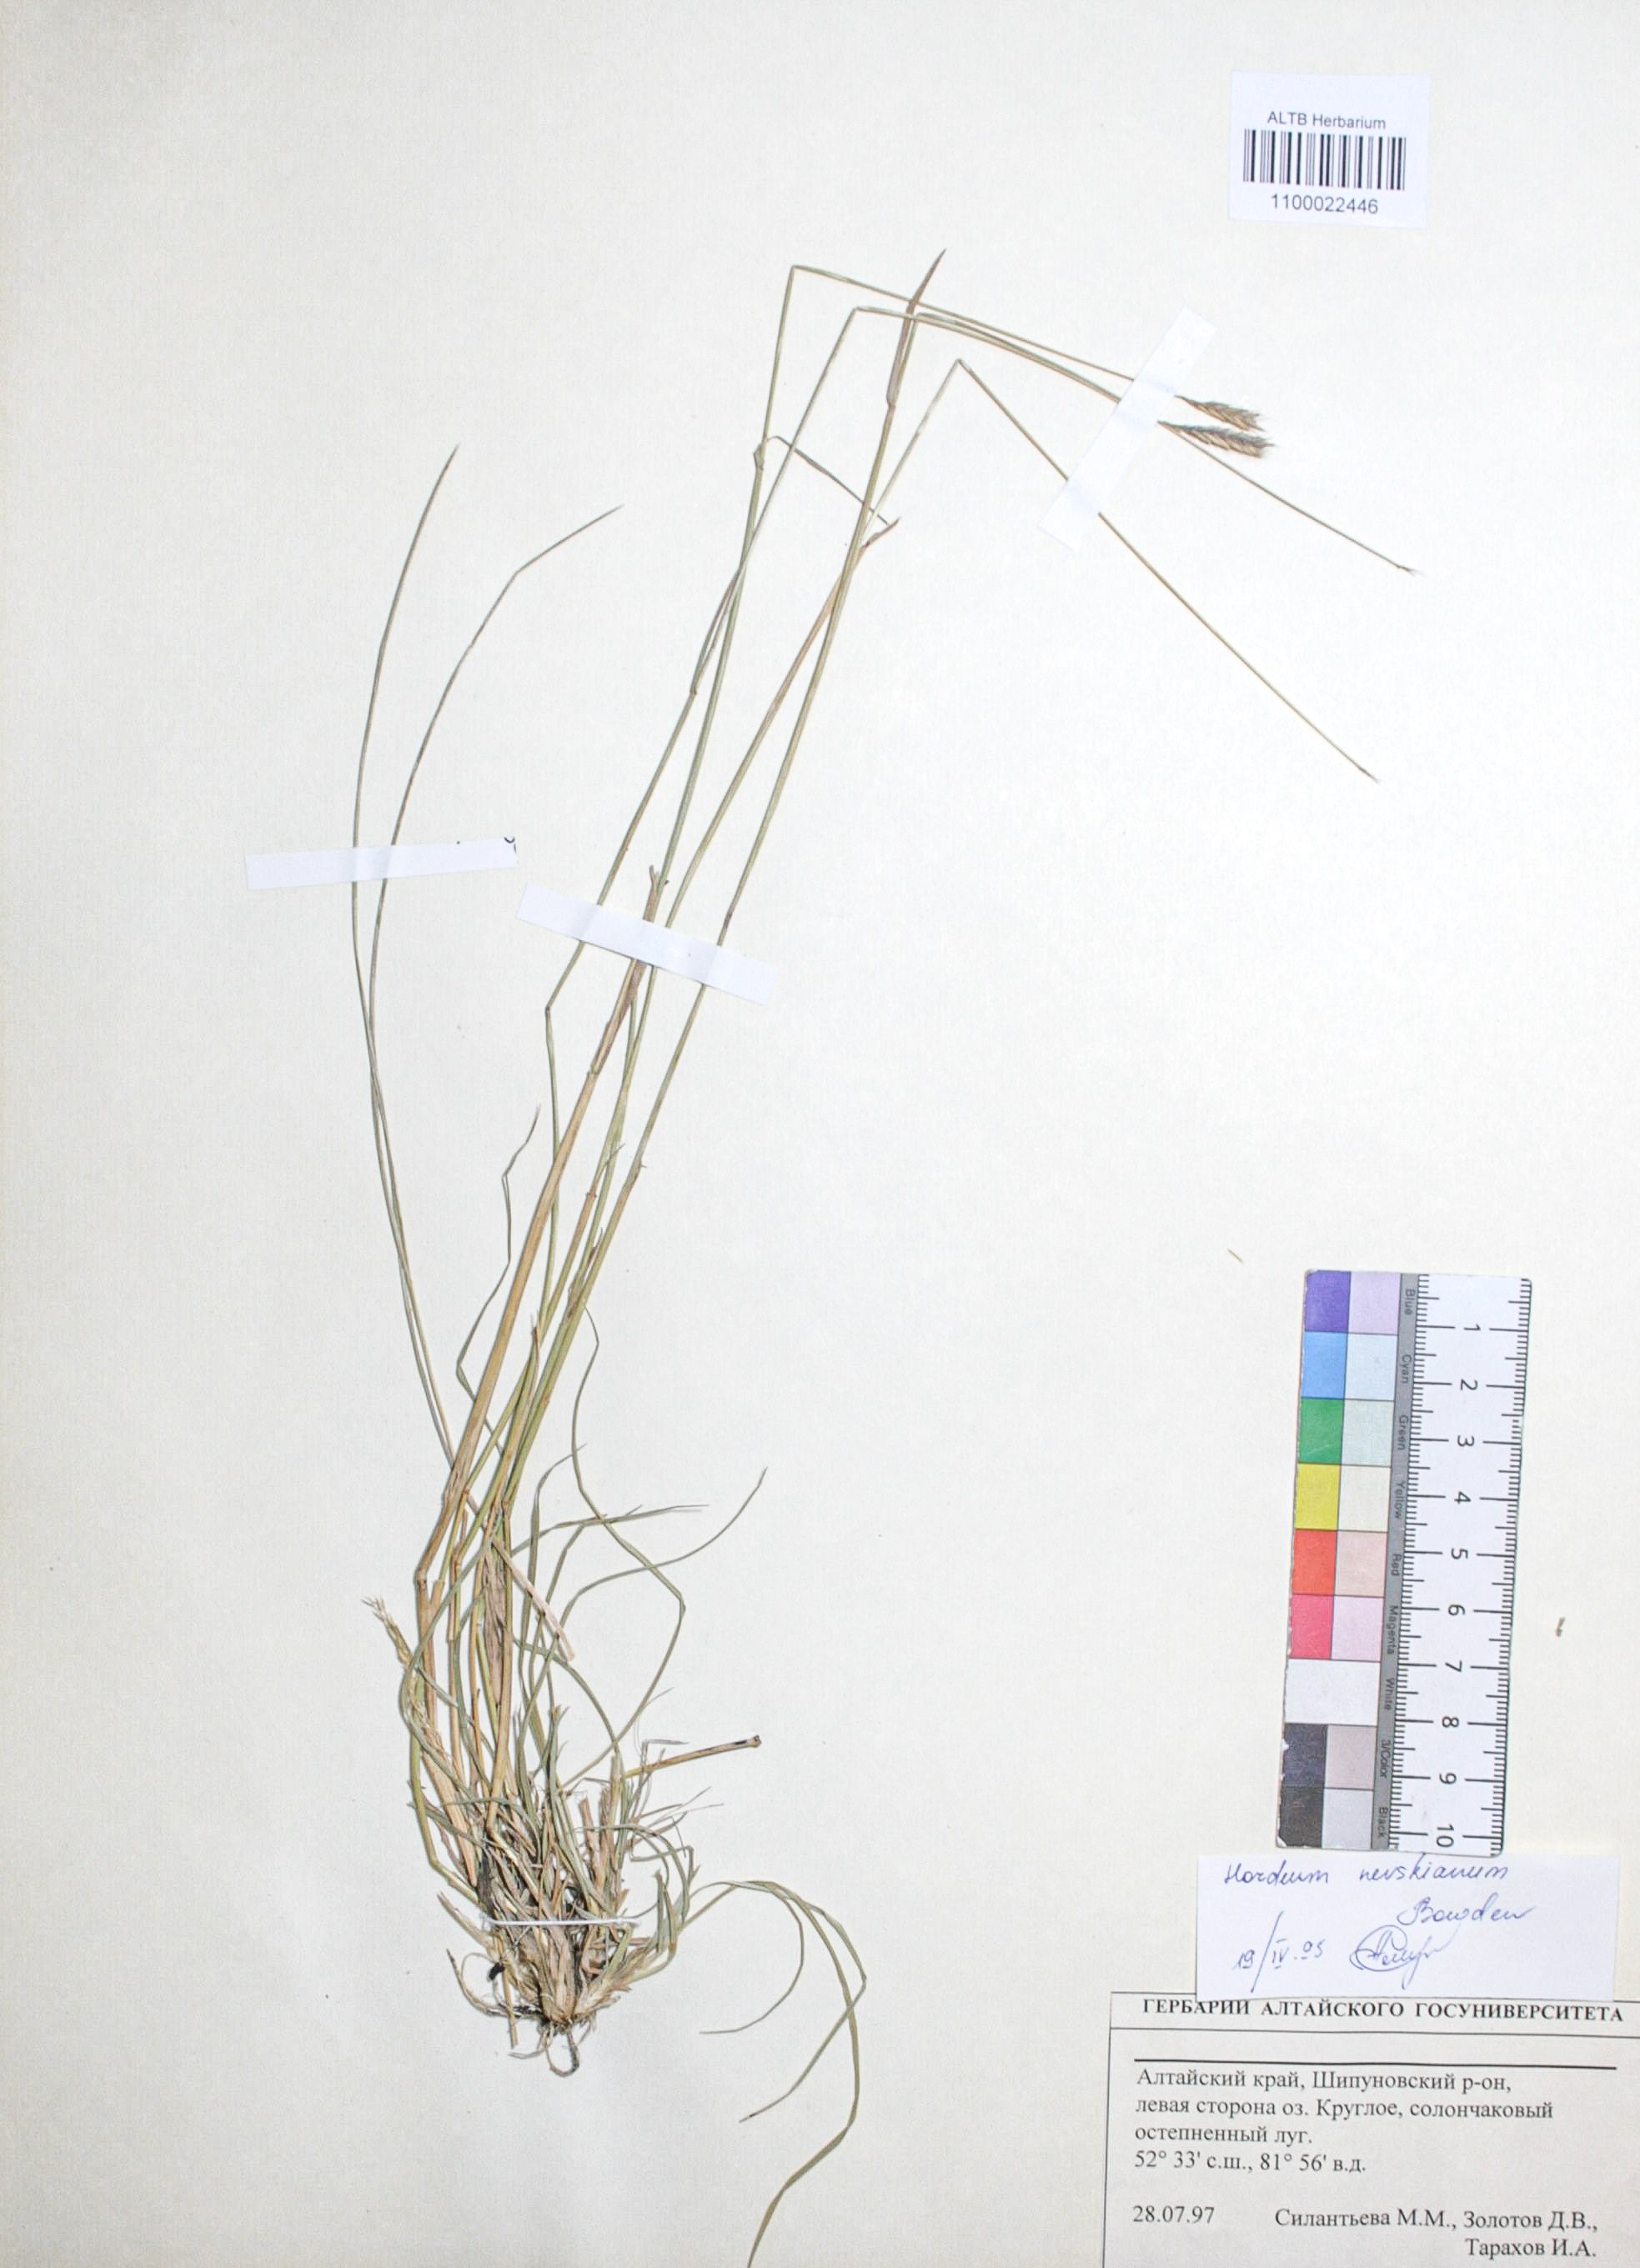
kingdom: Plantae
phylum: Tracheophyta
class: Liliopsida
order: Poales
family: Poaceae
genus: Hordeum
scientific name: Hordeum brevisubulatum
